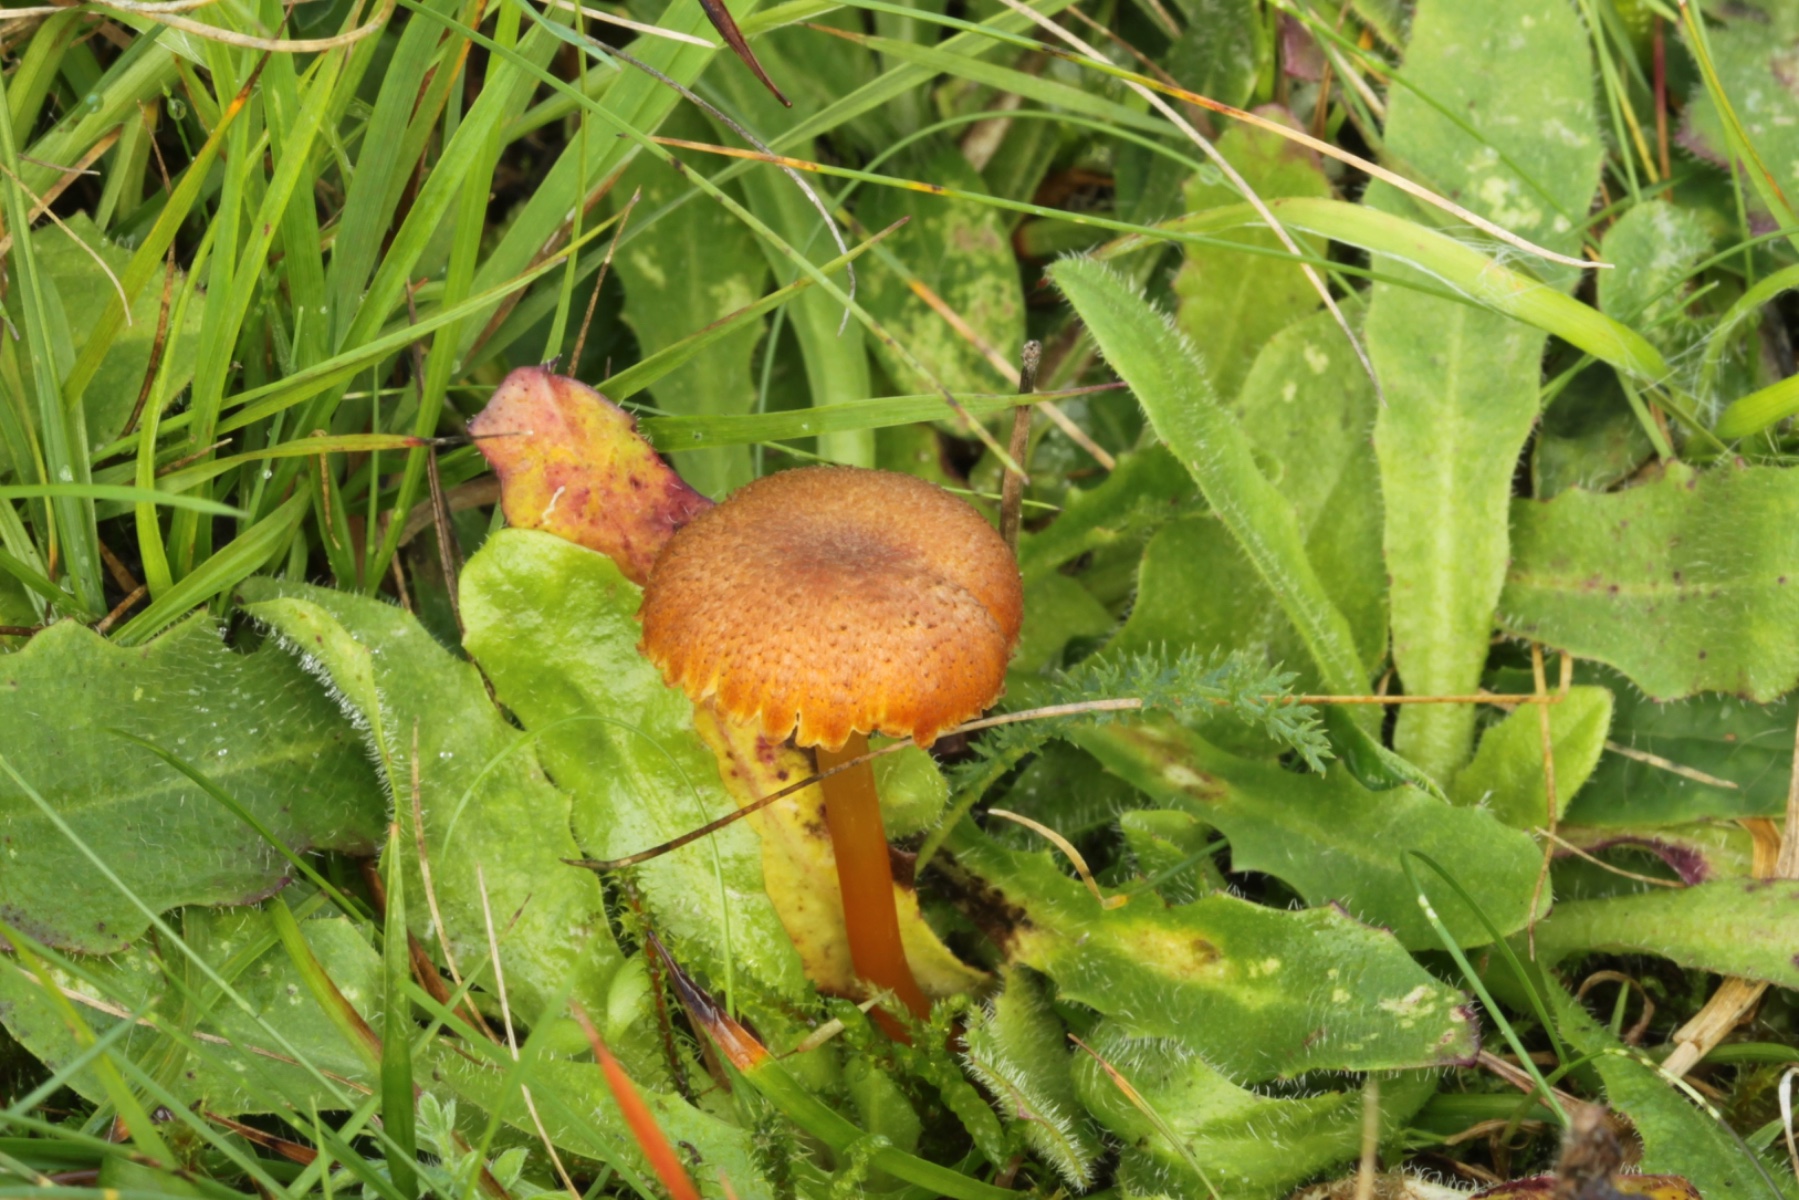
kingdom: Fungi
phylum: Basidiomycota
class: Agaricomycetes
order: Agaricales
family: Hygrophoraceae
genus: Hygrocybe
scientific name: Hygrocybe turunda
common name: sortskællet vokshat
